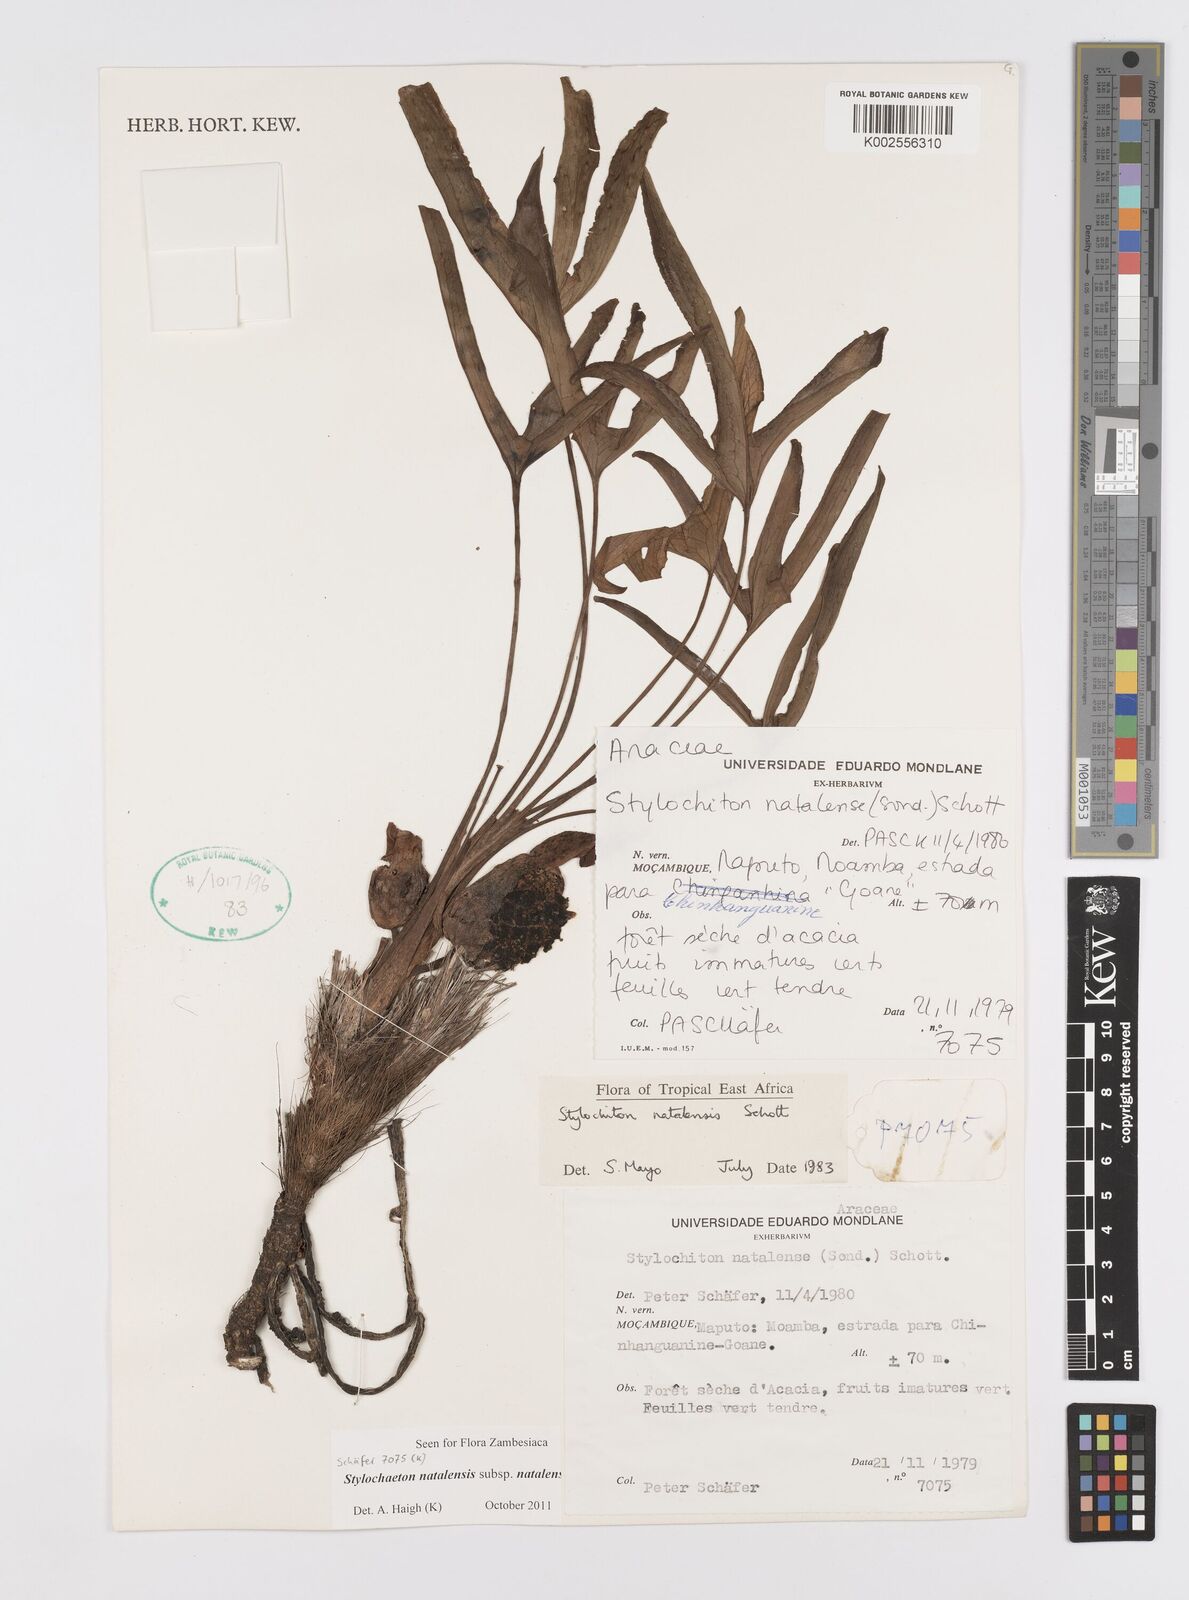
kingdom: Plantae
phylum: Tracheophyta
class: Liliopsida
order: Alismatales
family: Araceae
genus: Stylochaeton
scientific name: Stylochaeton natalense
